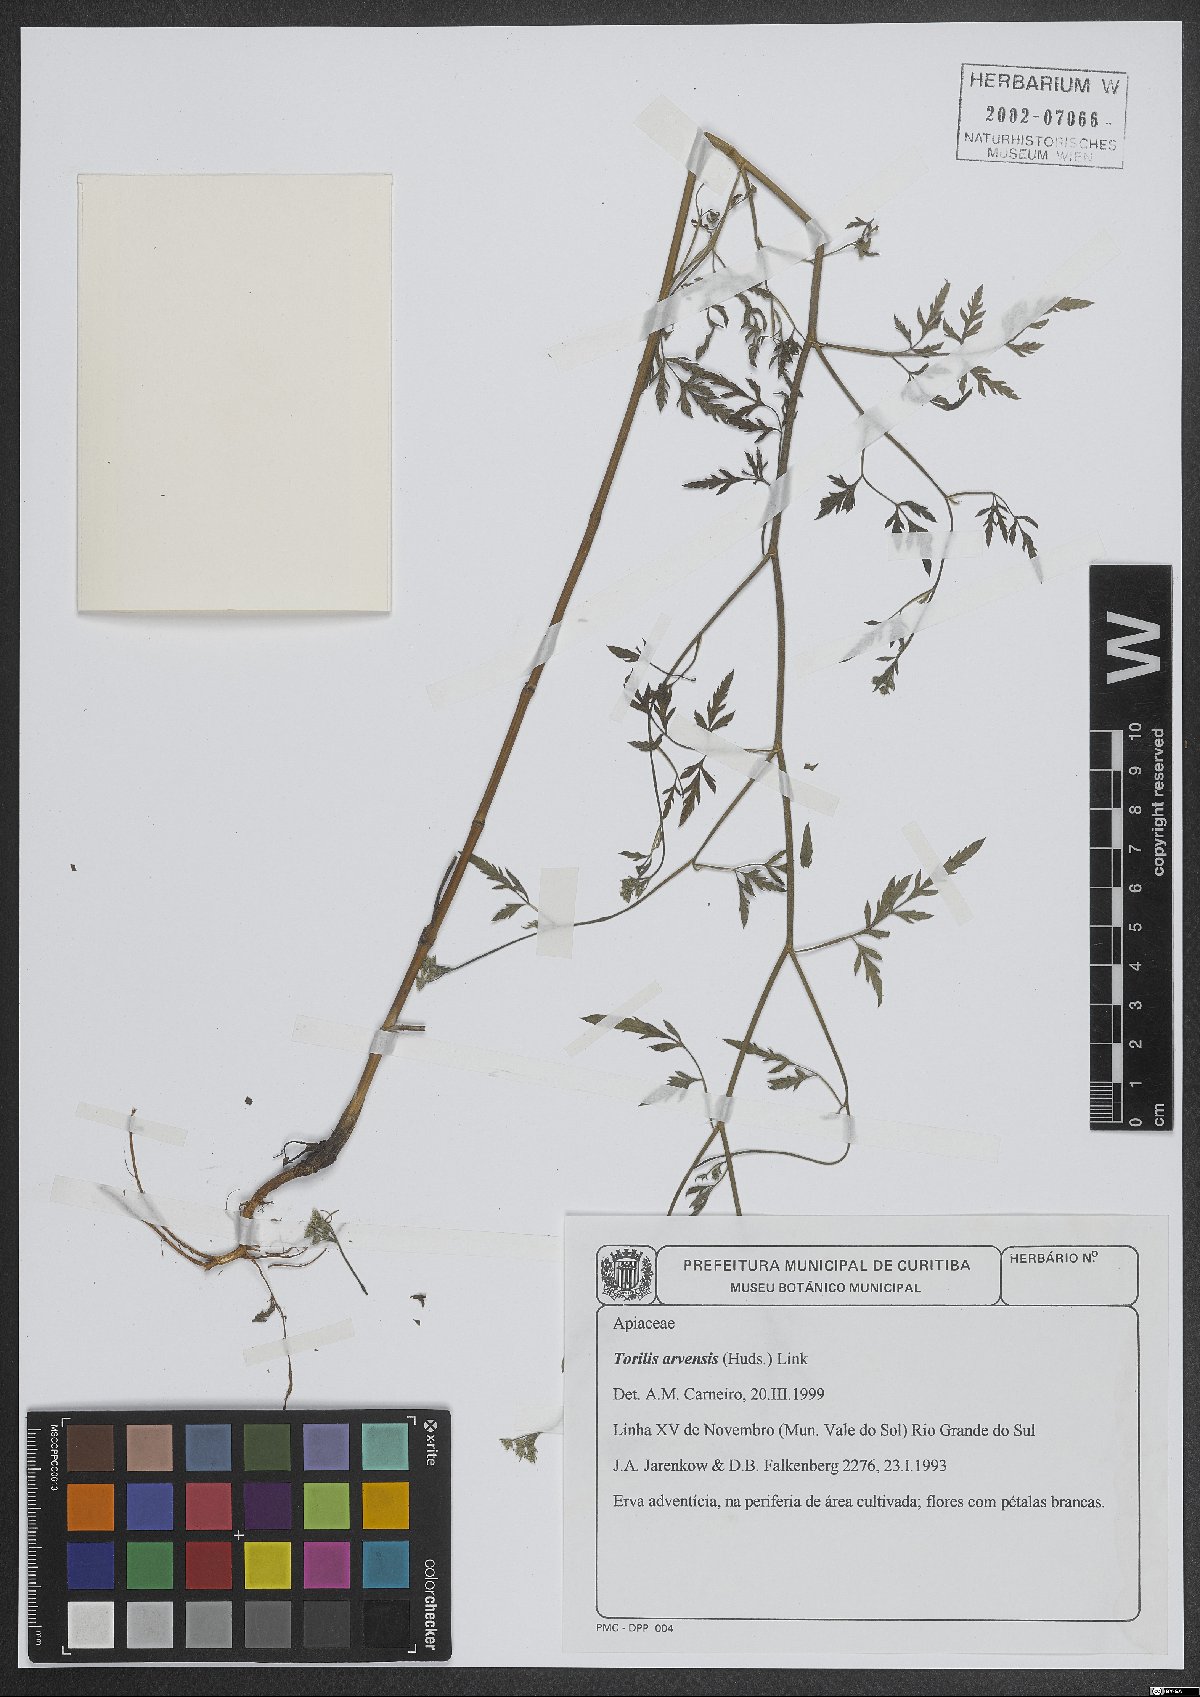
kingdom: Plantae
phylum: Tracheophyta
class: Magnoliopsida
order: Apiales
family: Apiaceae
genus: Torilis
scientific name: Torilis arvensis
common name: Spreading hedge-parsley
